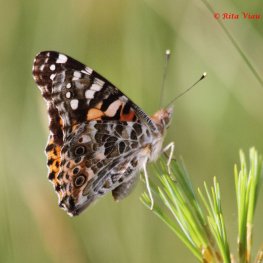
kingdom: Animalia
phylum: Arthropoda
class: Insecta
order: Lepidoptera
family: Nymphalidae
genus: Vanessa
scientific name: Vanessa cardui
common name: Painted Lady
